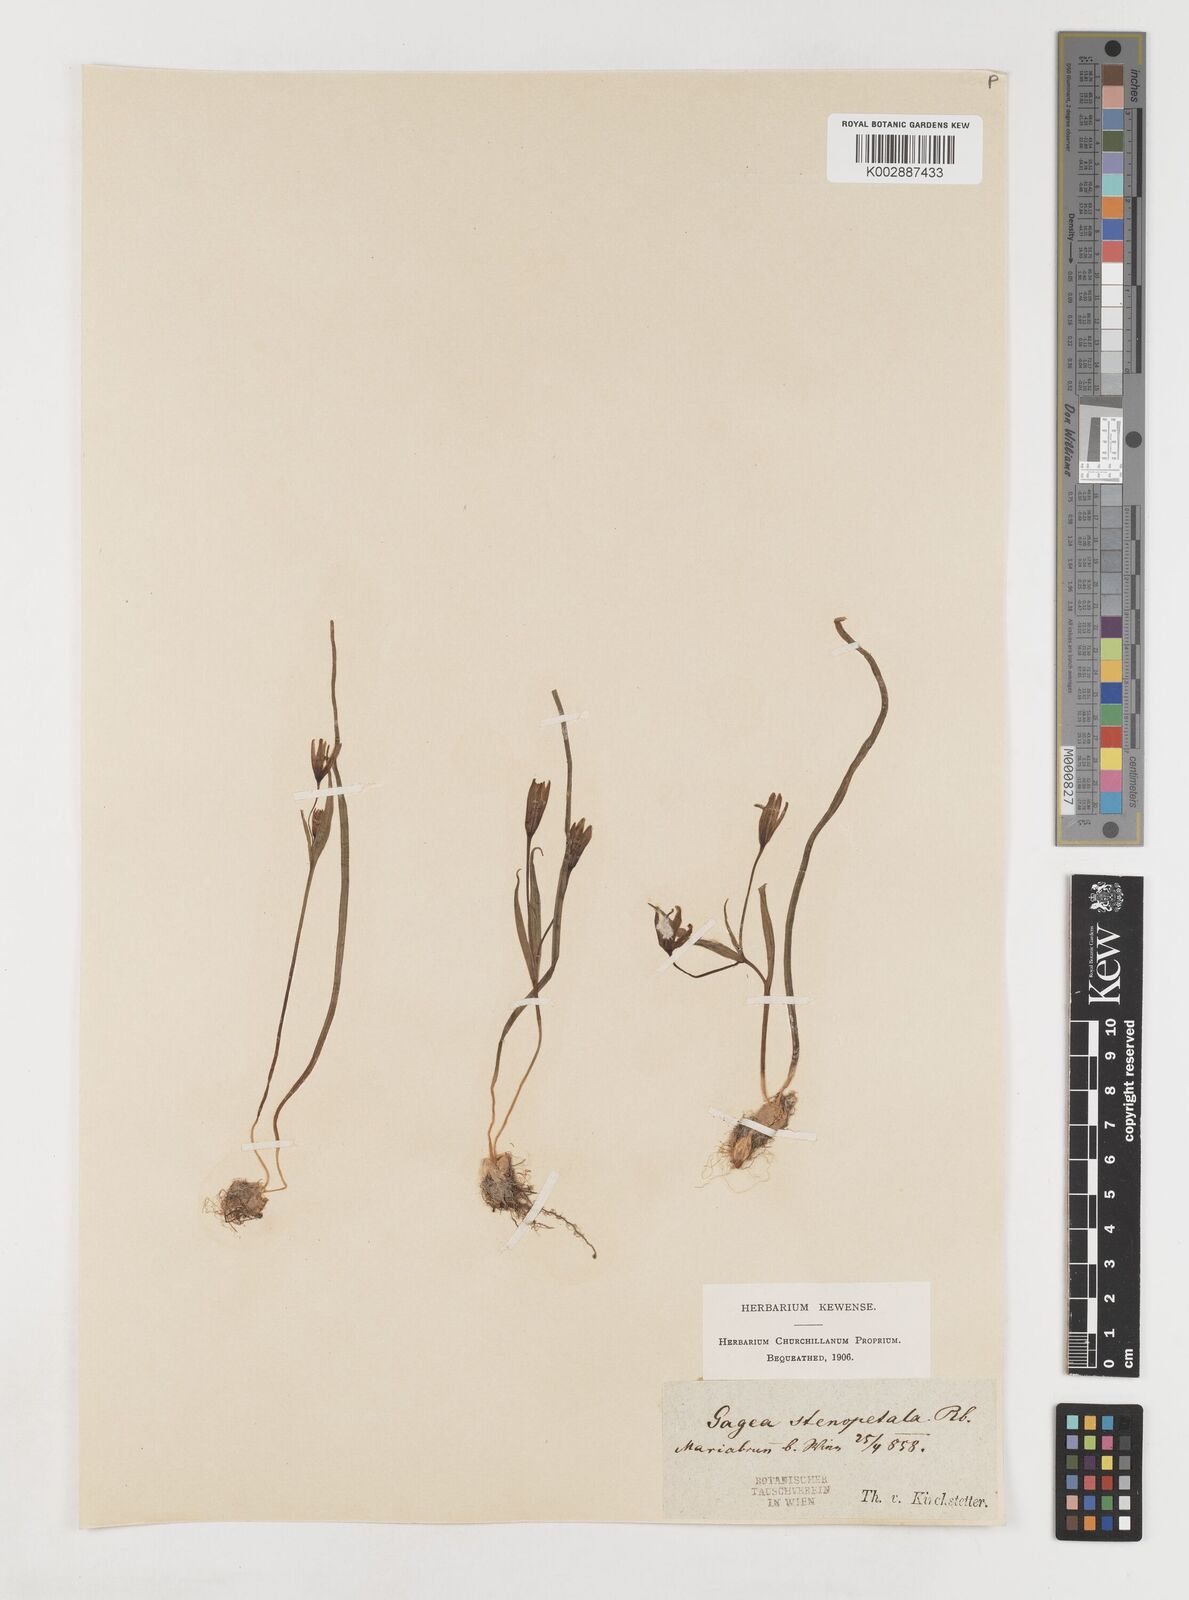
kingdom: Plantae
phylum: Tracheophyta
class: Liliopsida
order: Liliales
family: Liliaceae
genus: Gagea
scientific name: Gagea pratensis
